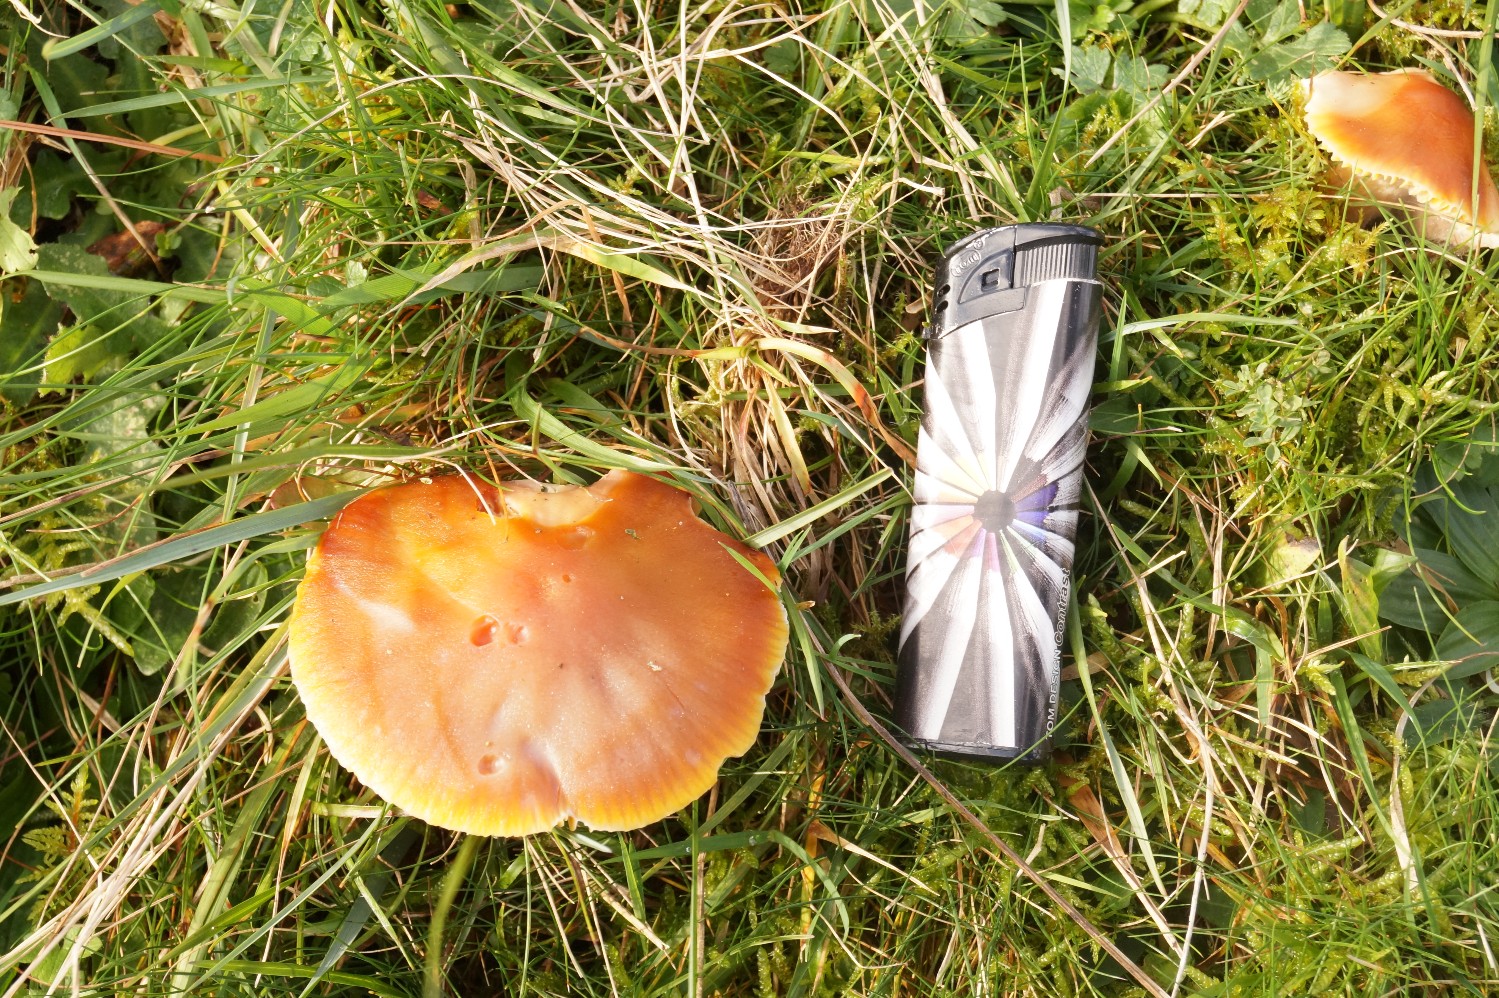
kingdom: Fungi
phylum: Basidiomycota
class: Agaricomycetes
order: Agaricales
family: Hygrophoraceae
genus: Hygrocybe
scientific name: Hygrocybe punicea
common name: skarlagen-vokshat
